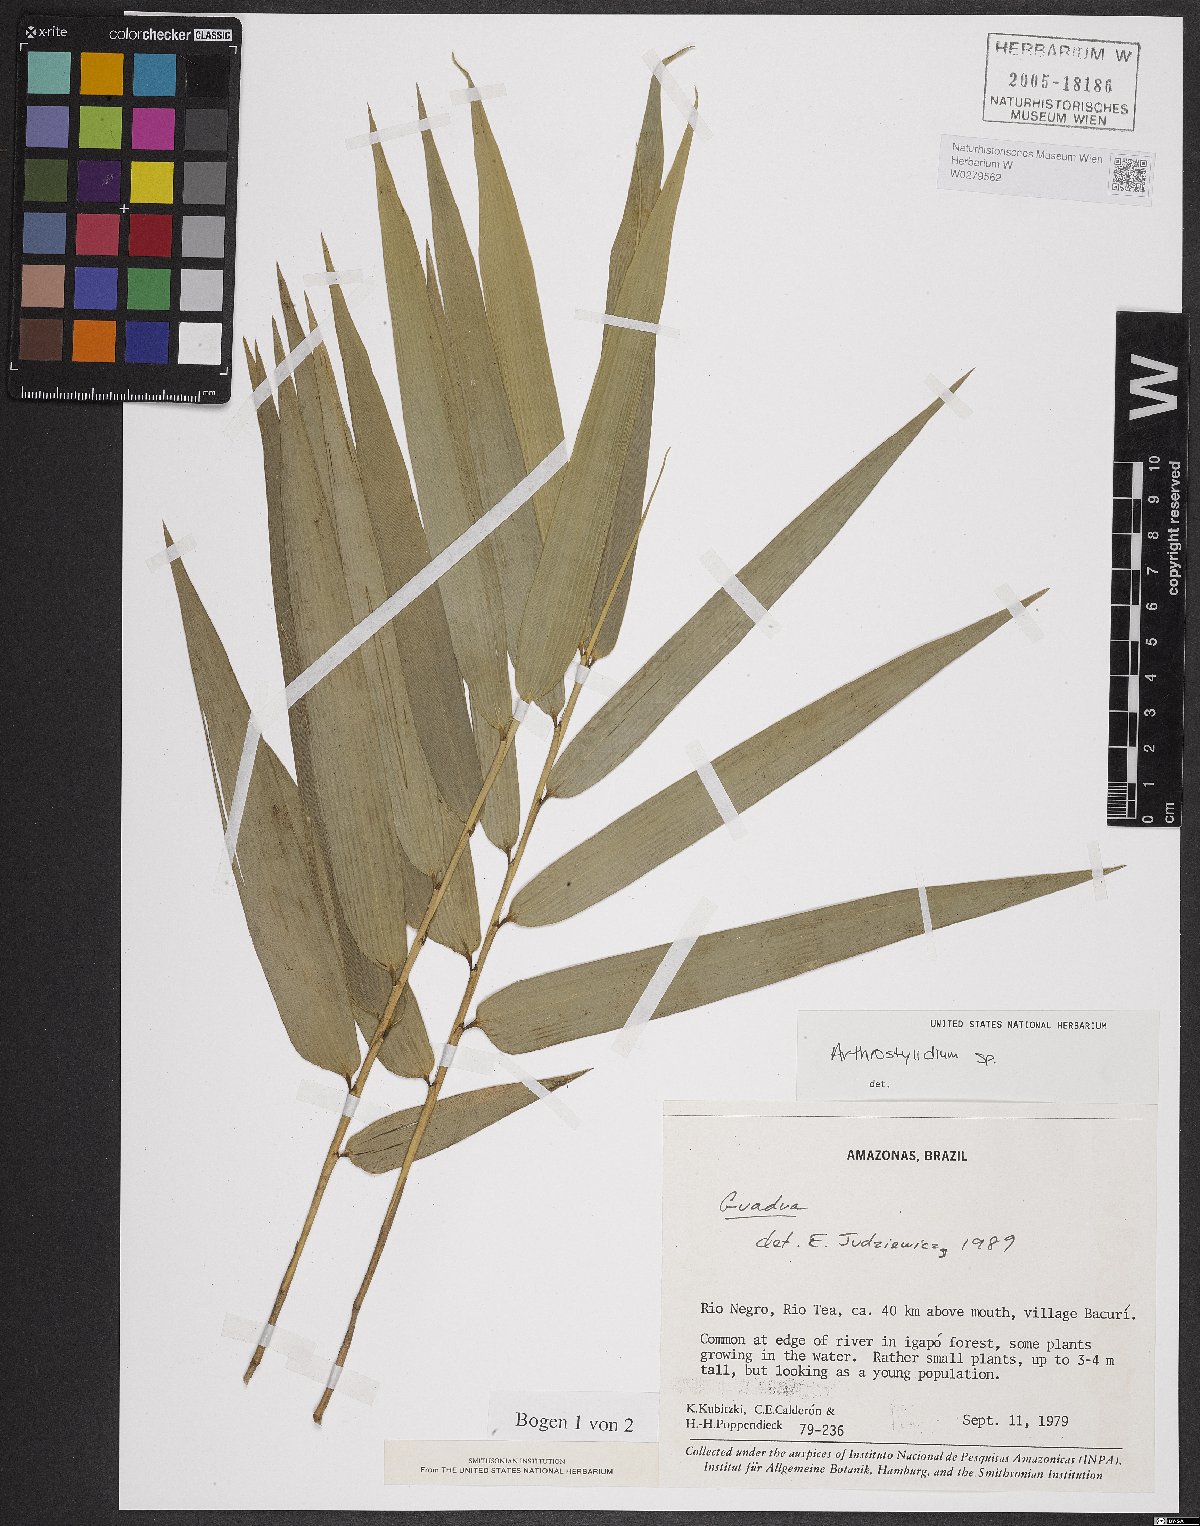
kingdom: Plantae
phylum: Tracheophyta
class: Liliopsida
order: Poales
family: Poaceae
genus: Arthrostylidium
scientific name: Arthrostylidium
